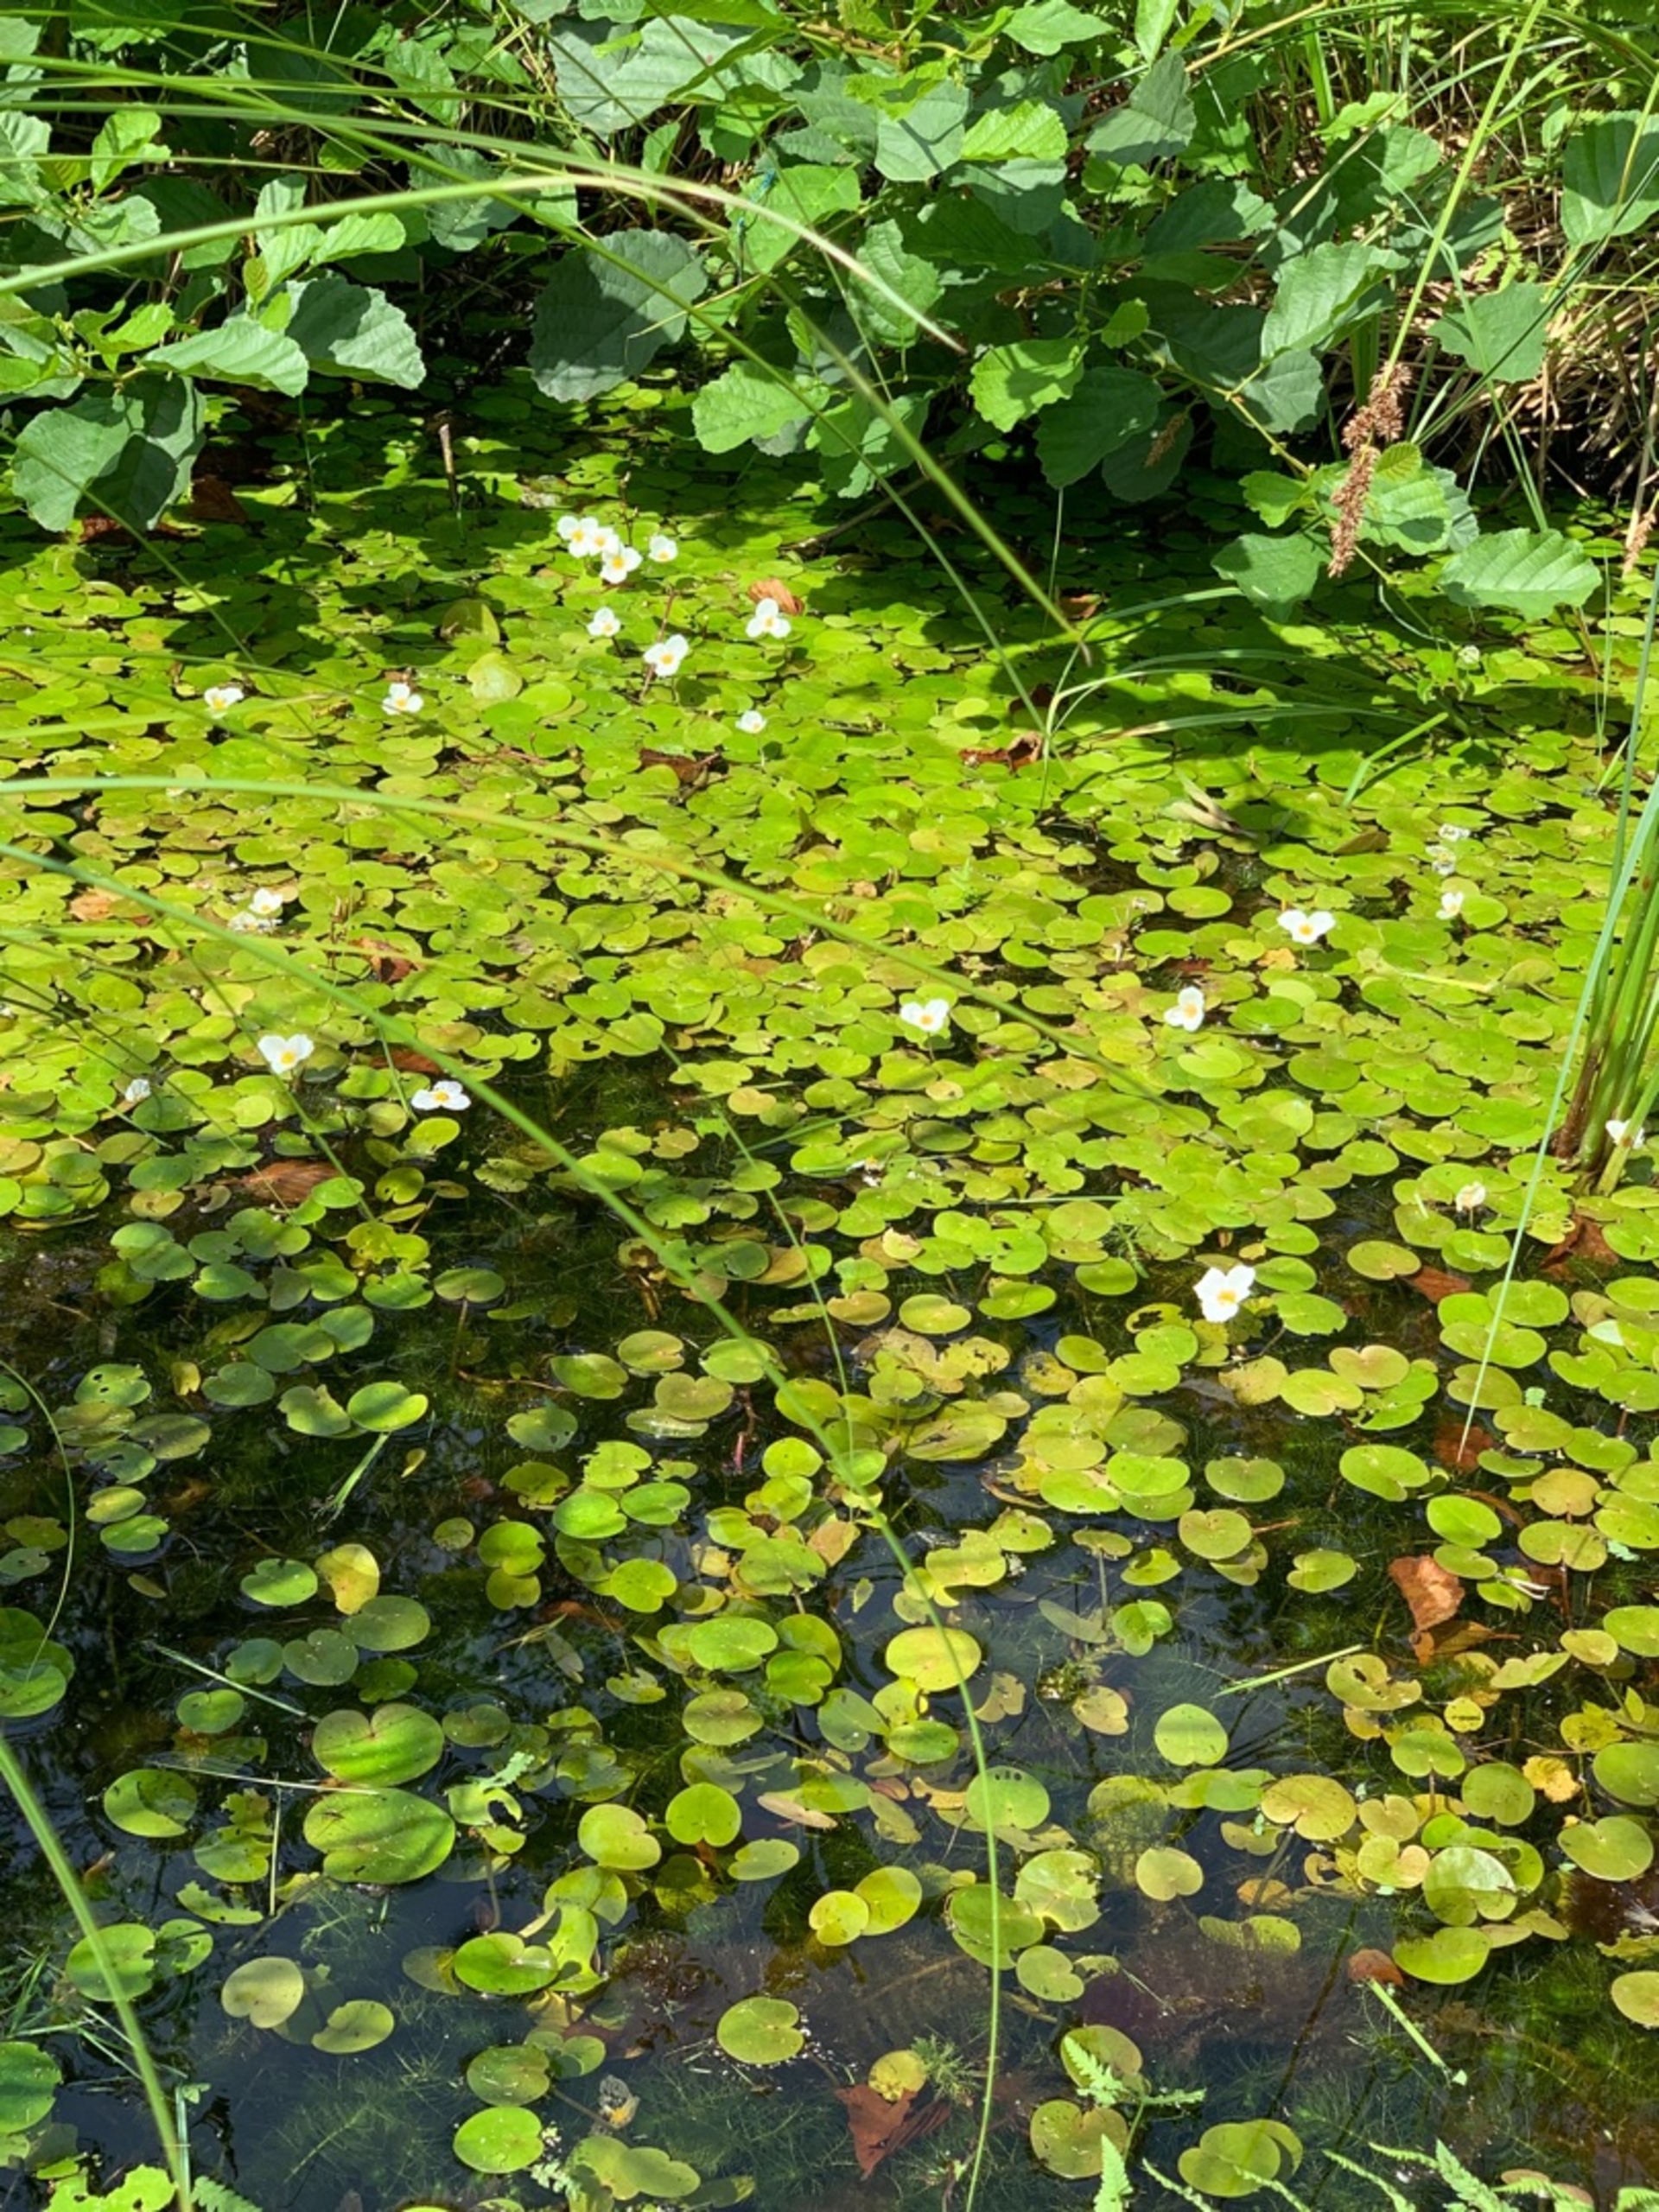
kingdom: Plantae
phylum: Tracheophyta
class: Liliopsida
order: Alismatales
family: Hydrocharitaceae
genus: Hydrocharis
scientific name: Hydrocharis morsus-ranae
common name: Frøbid
